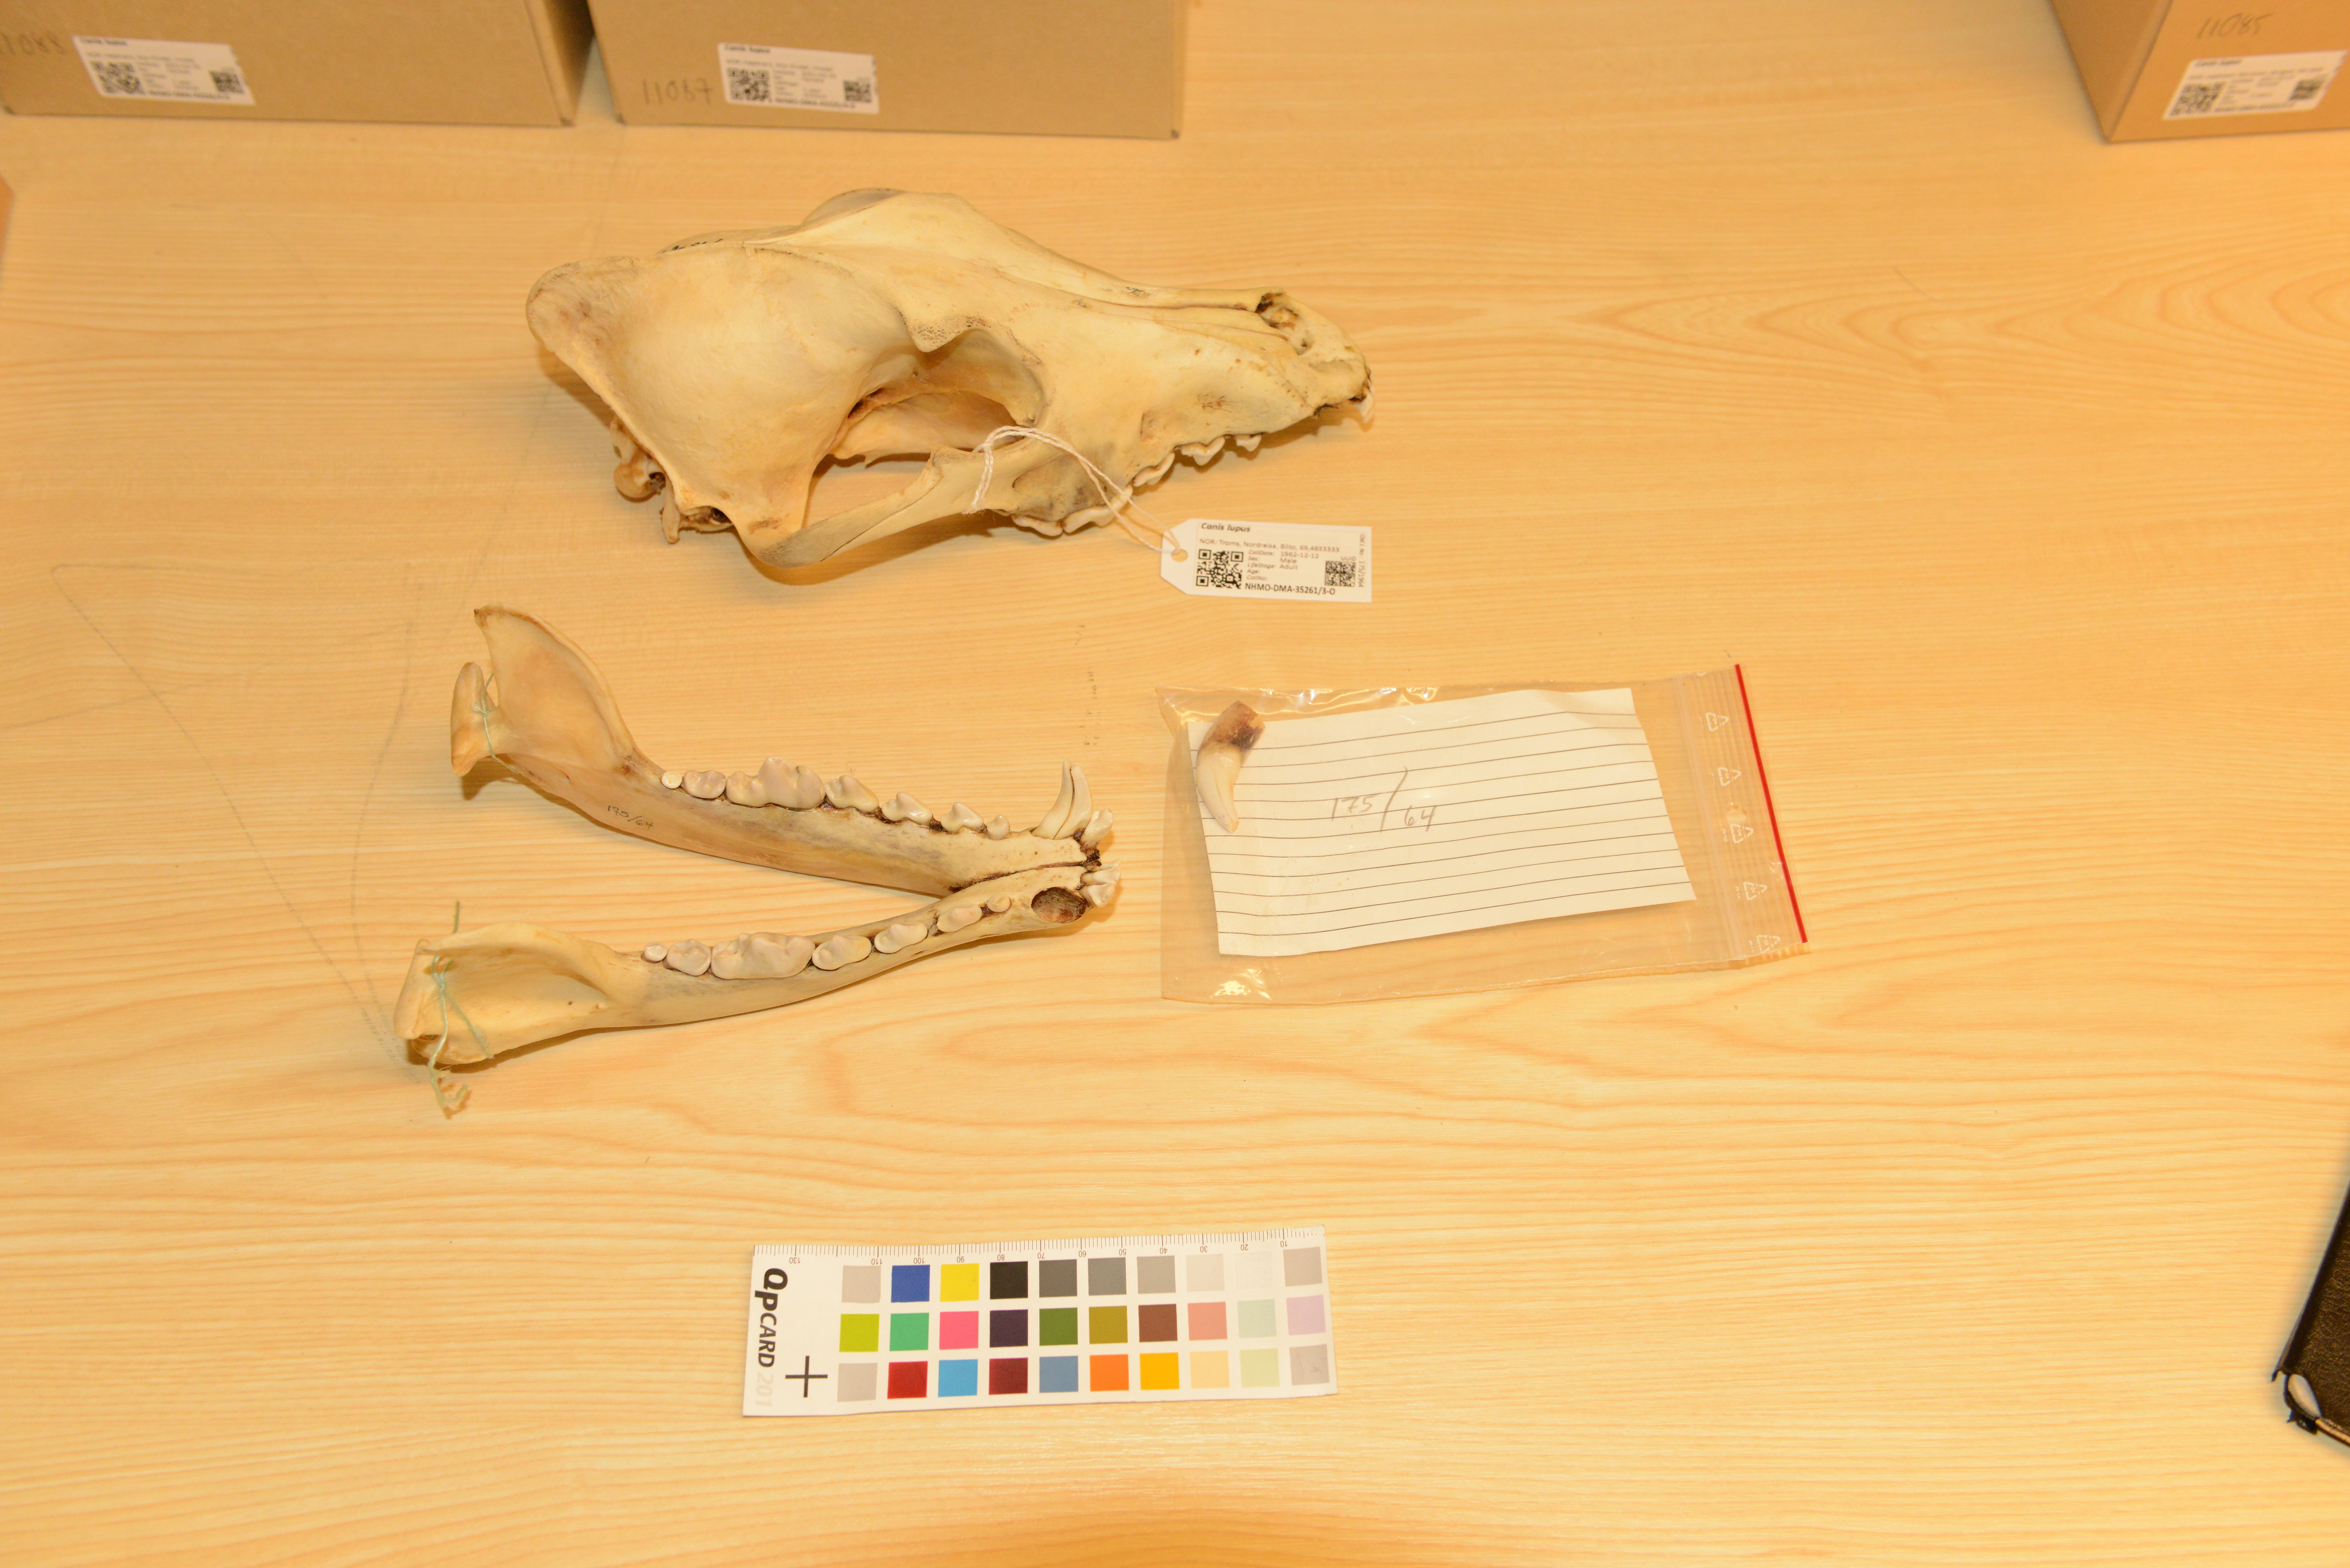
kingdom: Animalia
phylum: Chordata
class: Mammalia
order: Carnivora
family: Canidae
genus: Canis
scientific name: Canis lupus
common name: Gray wolf
